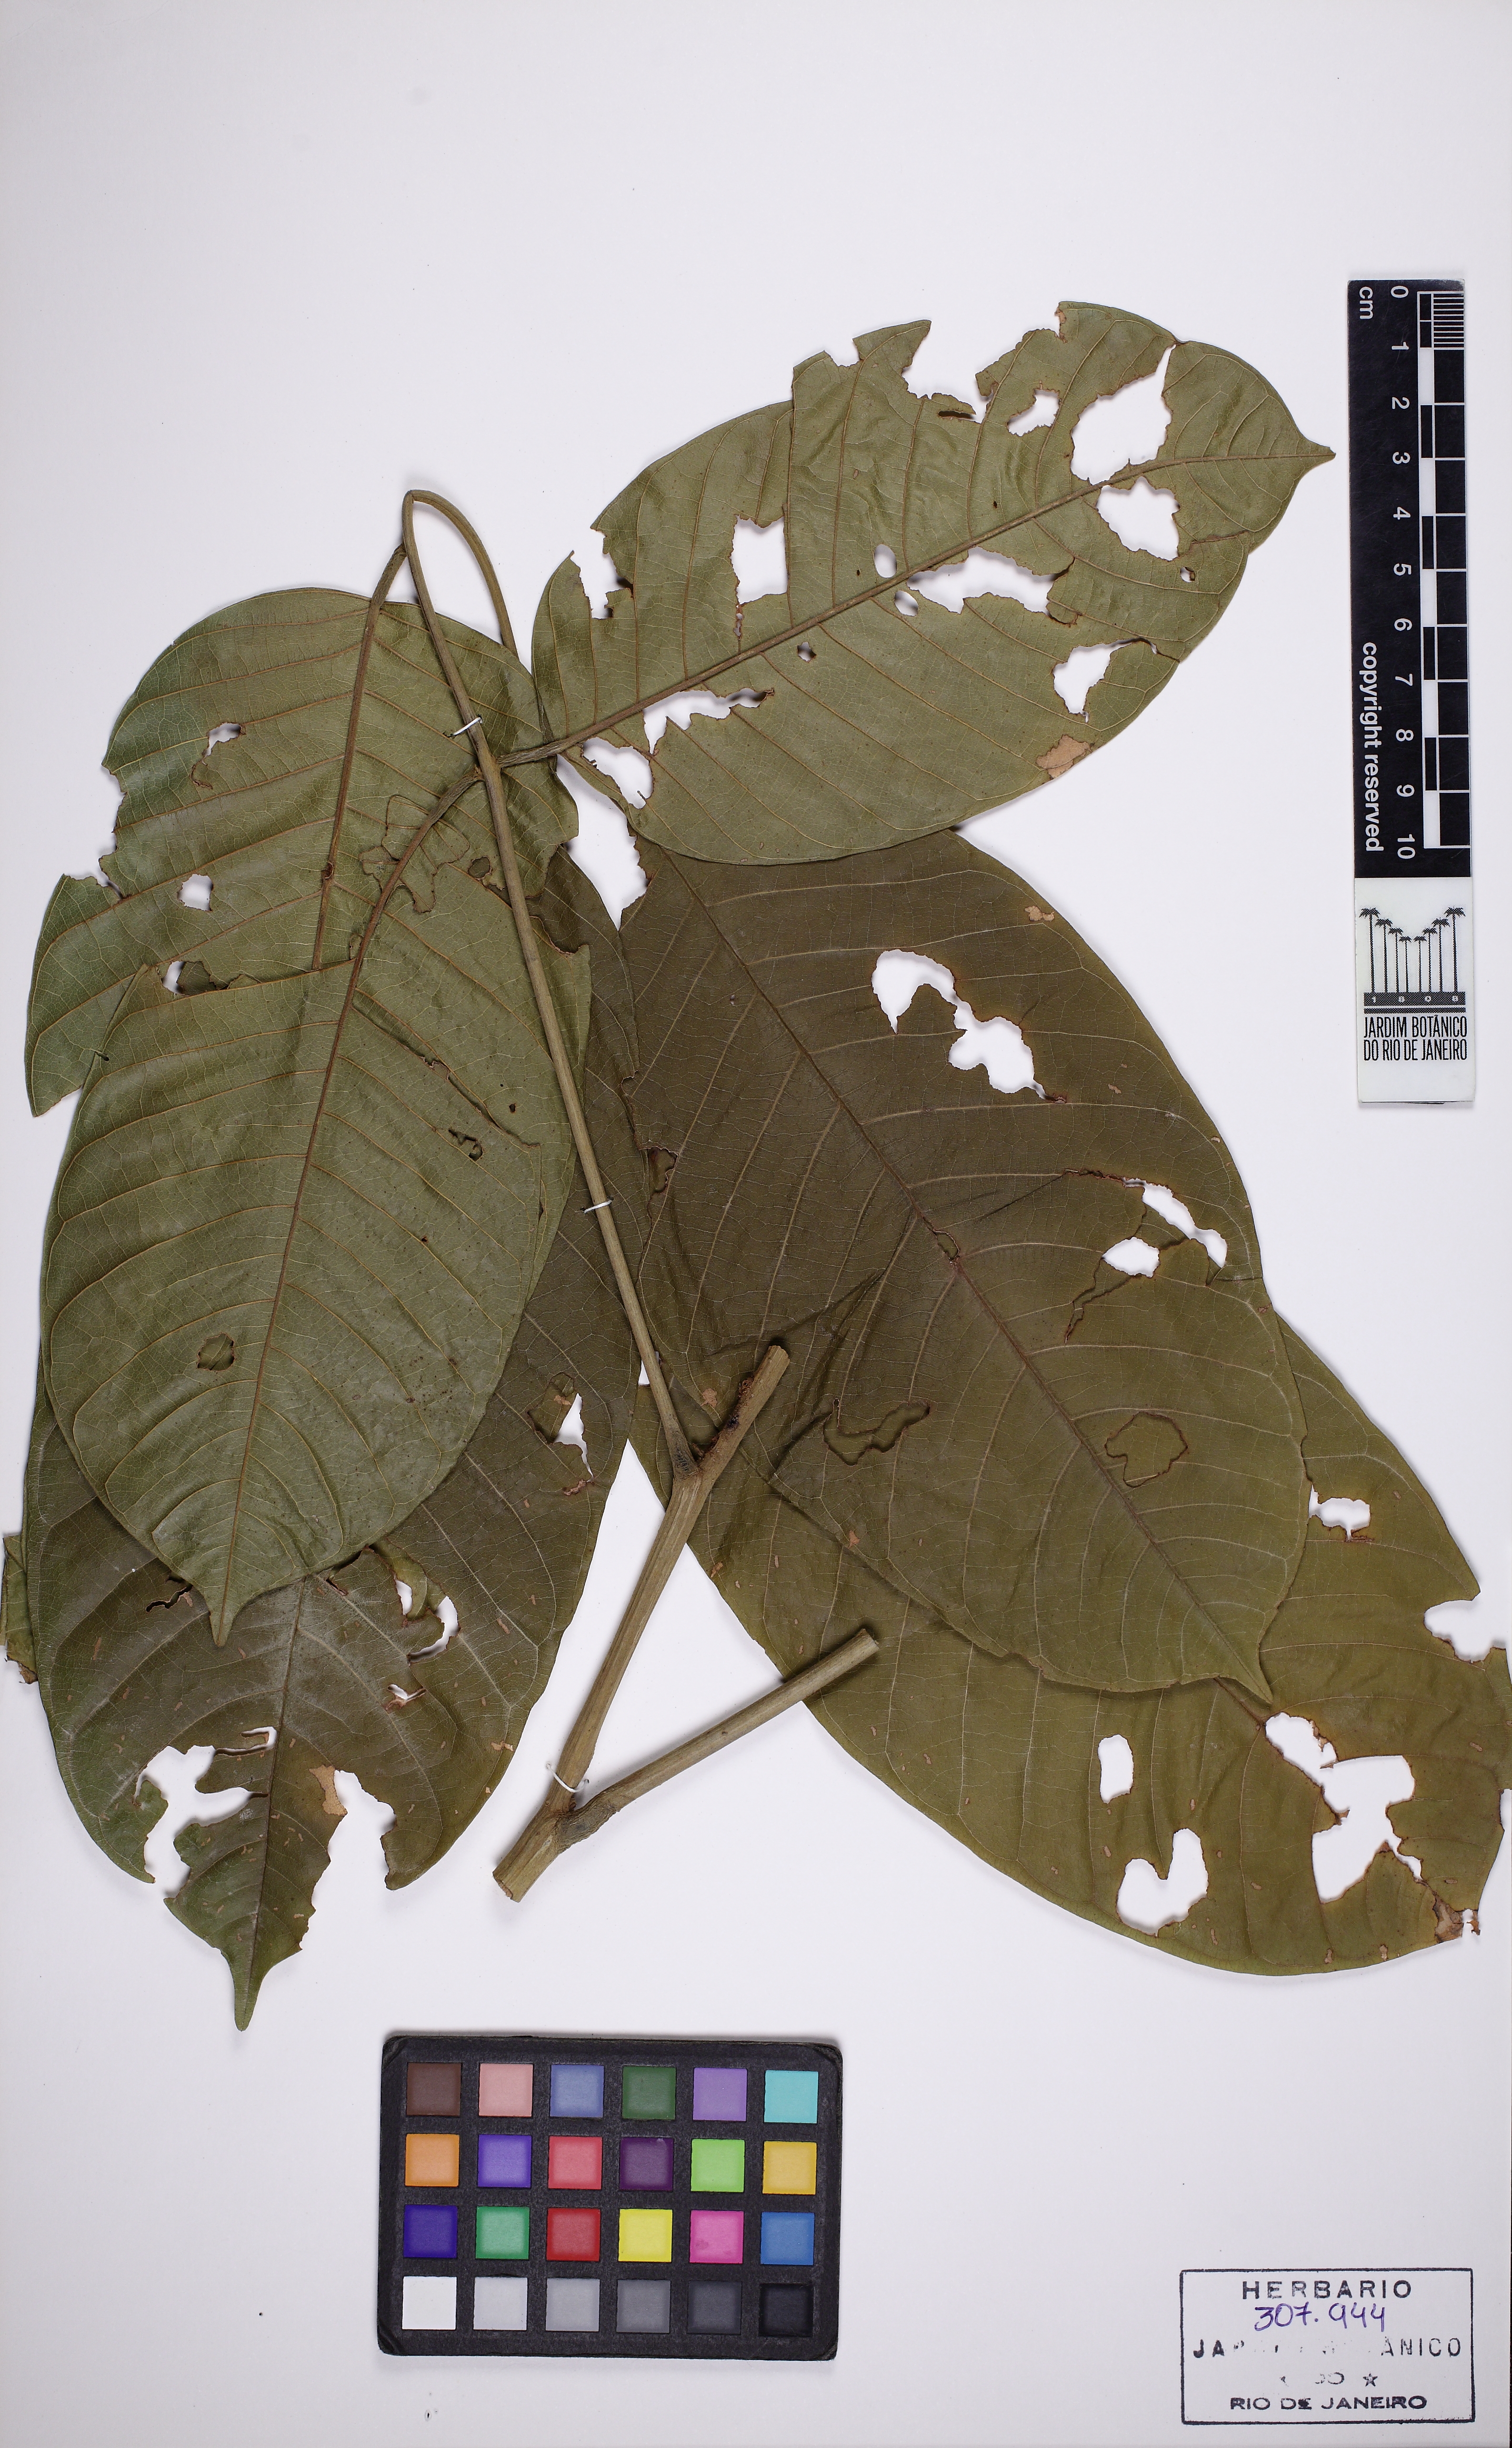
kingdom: Plantae
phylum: Tracheophyta
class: Magnoliopsida
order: Fabales
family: Fabaceae
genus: Ormosia
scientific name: Ormosia nobilis
